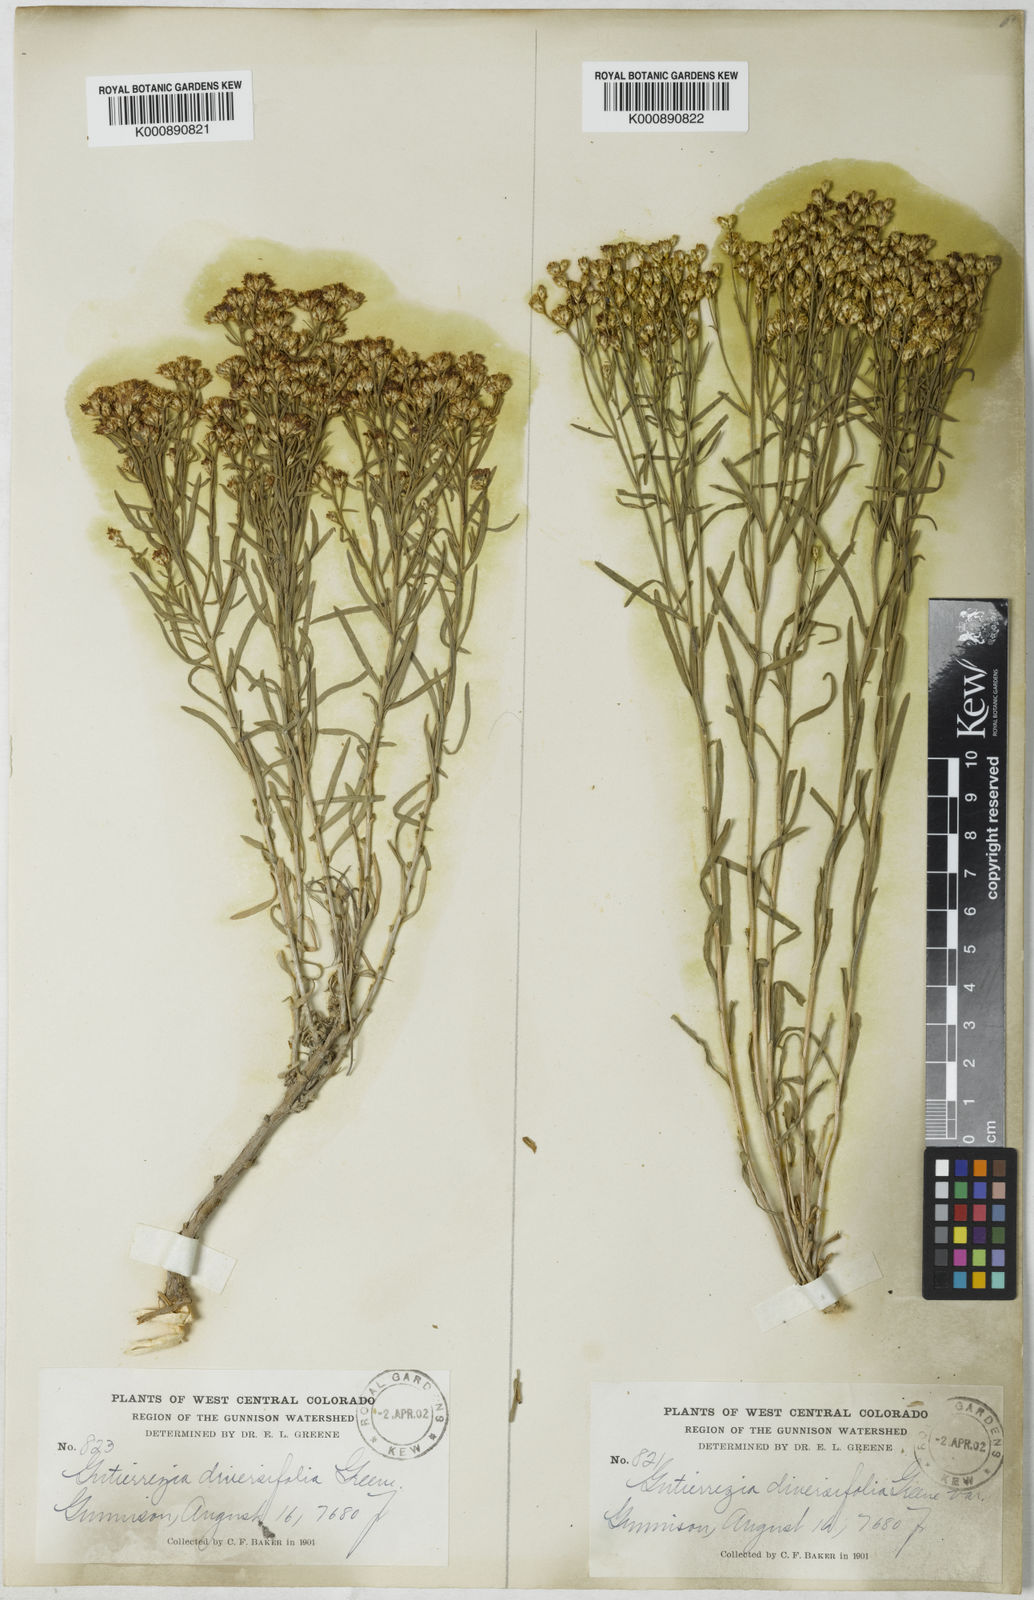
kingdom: Plantae
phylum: Tracheophyta
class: Magnoliopsida
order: Asterales
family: Asteraceae
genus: Amphiachyris
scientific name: Amphiachyris
